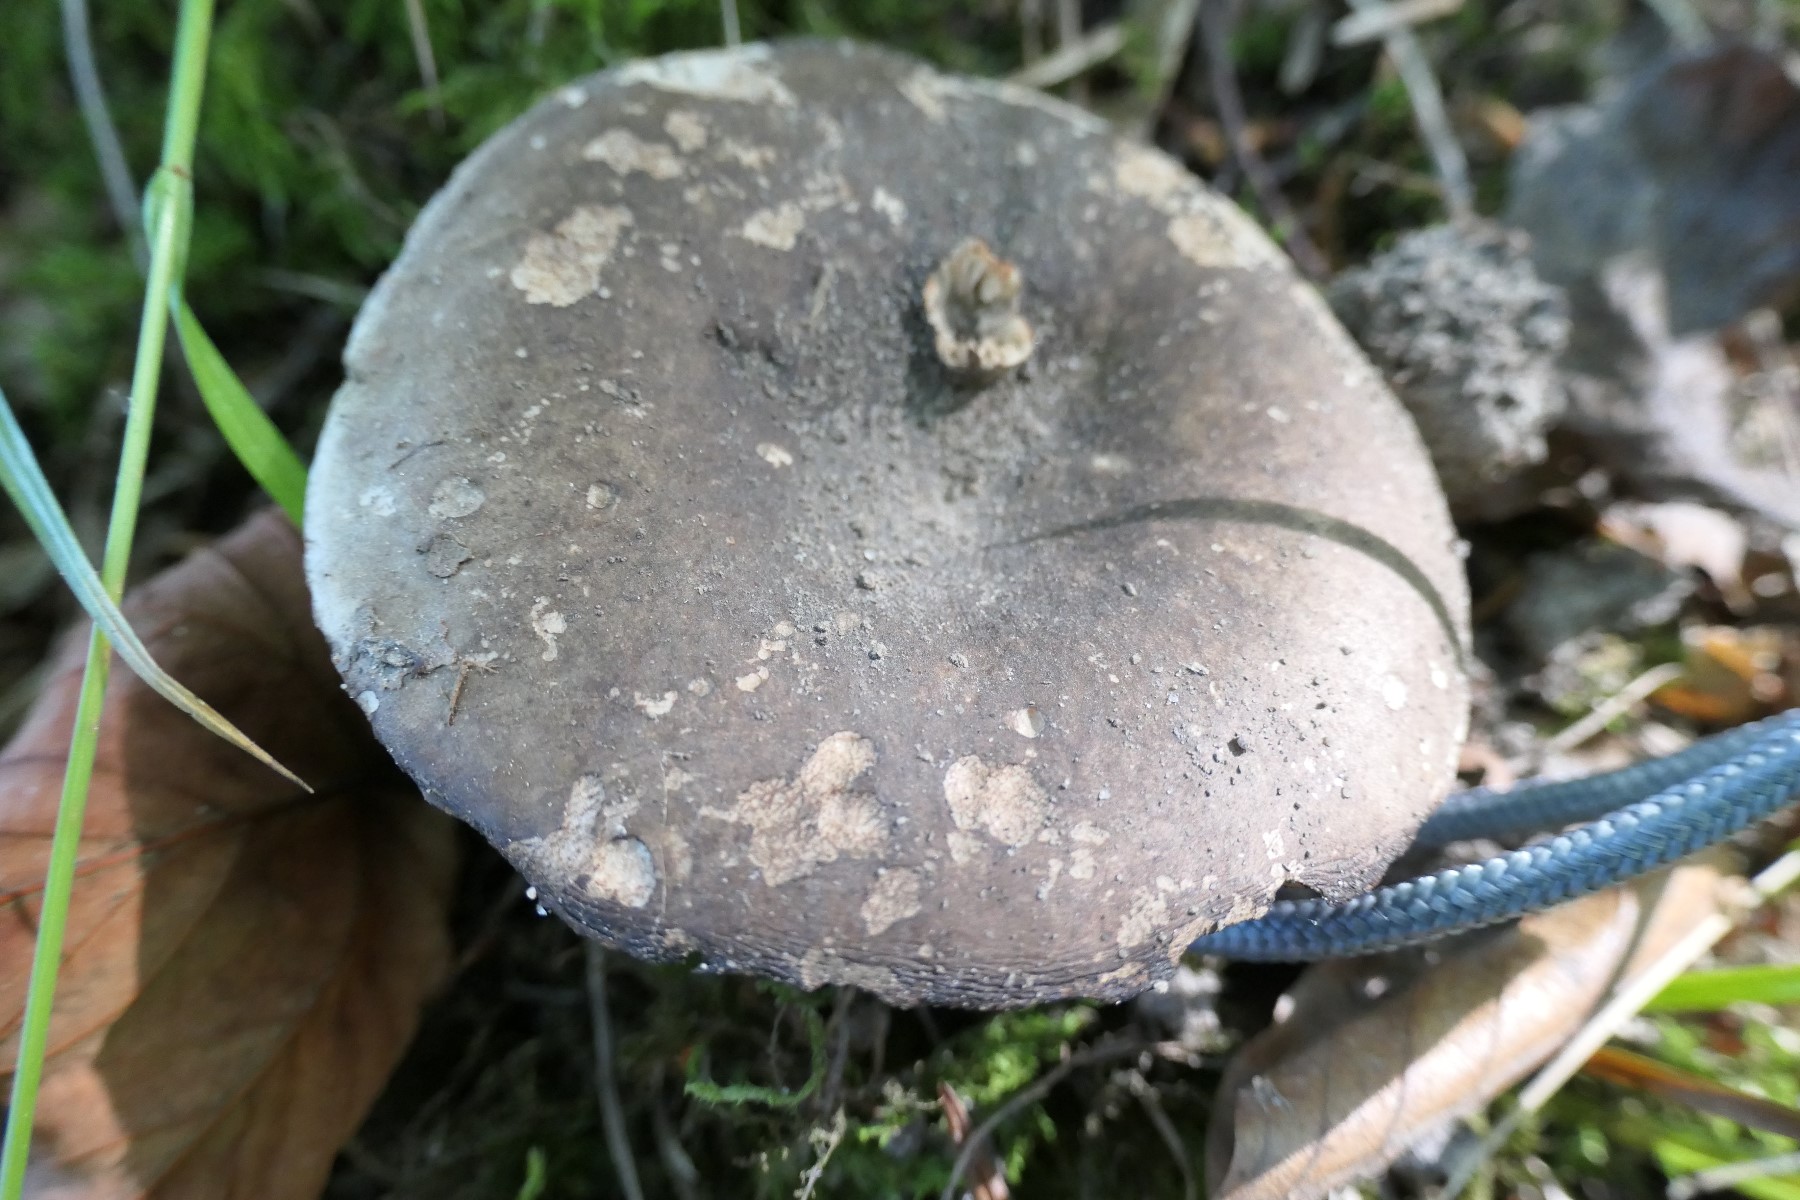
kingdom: Fungi
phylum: Basidiomycota
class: Agaricomycetes
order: Russulales
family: Russulaceae
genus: Russula
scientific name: Russula adusta
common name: sværtende skørhat
